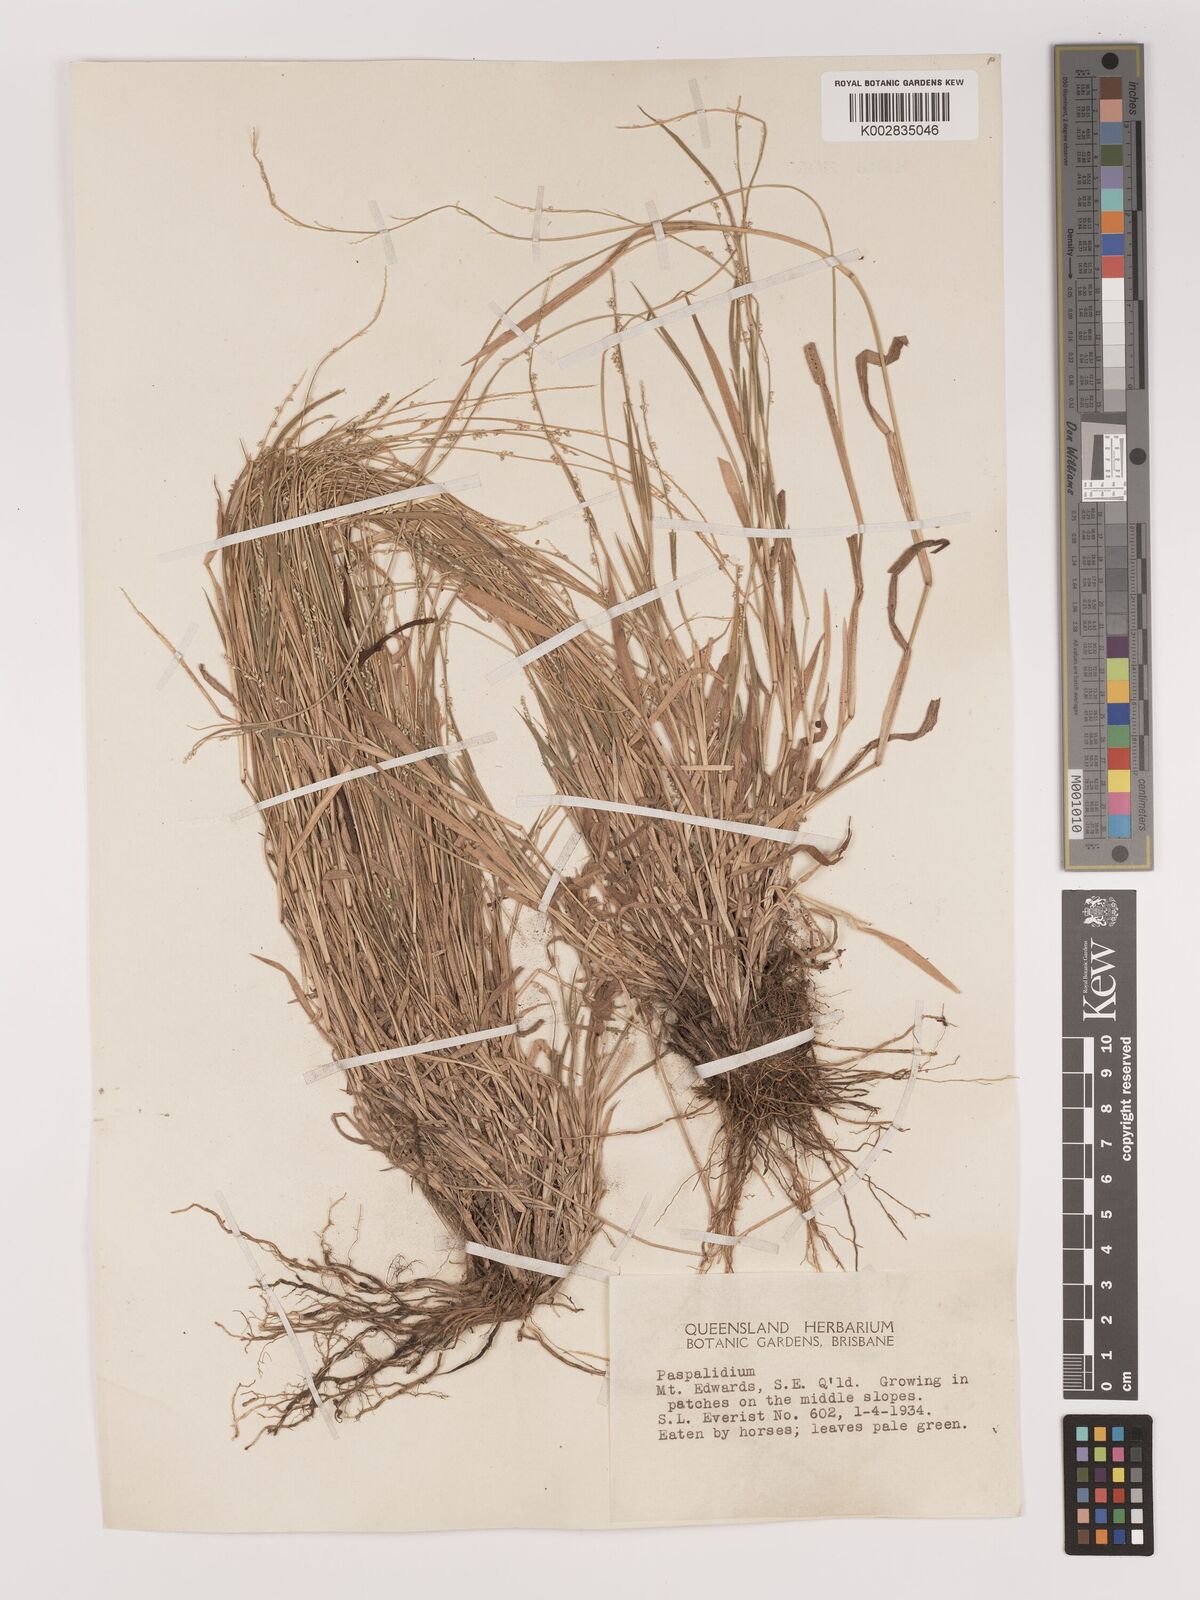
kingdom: Plantae
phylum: Tracheophyta
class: Liliopsida
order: Poales
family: Poaceae
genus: Setaria
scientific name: Setaria
